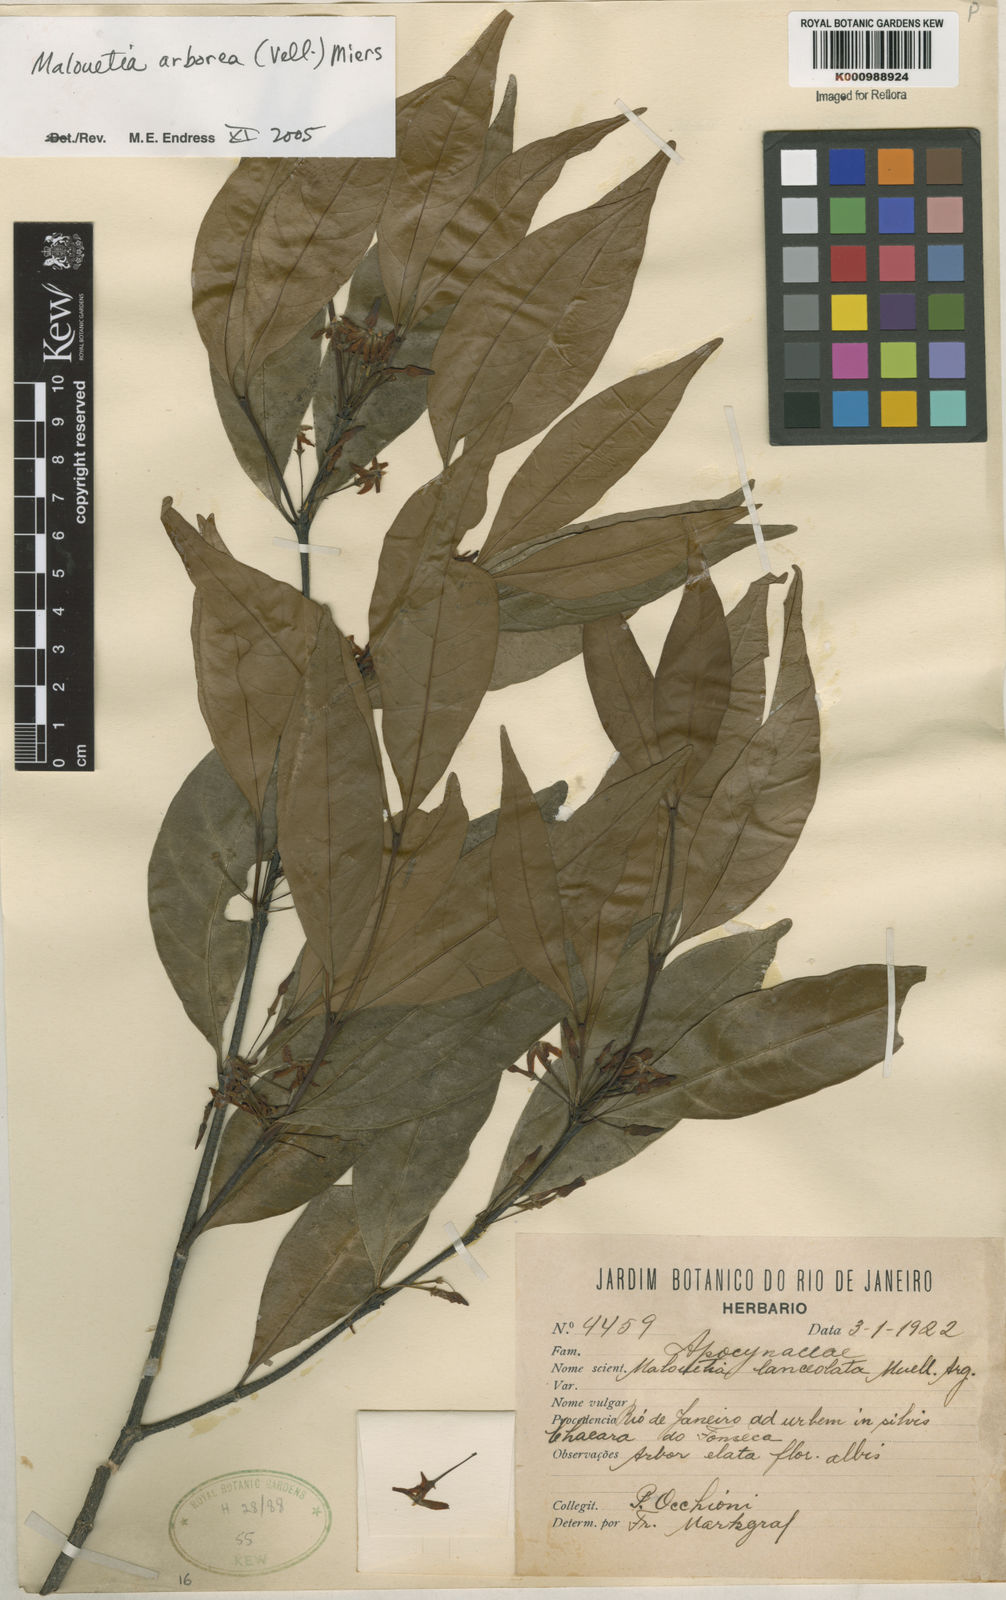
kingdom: Plantae
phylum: Tracheophyta
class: Magnoliopsida
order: Gentianales
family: Apocynaceae
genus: Malouetia
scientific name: Malouetia cestroides
